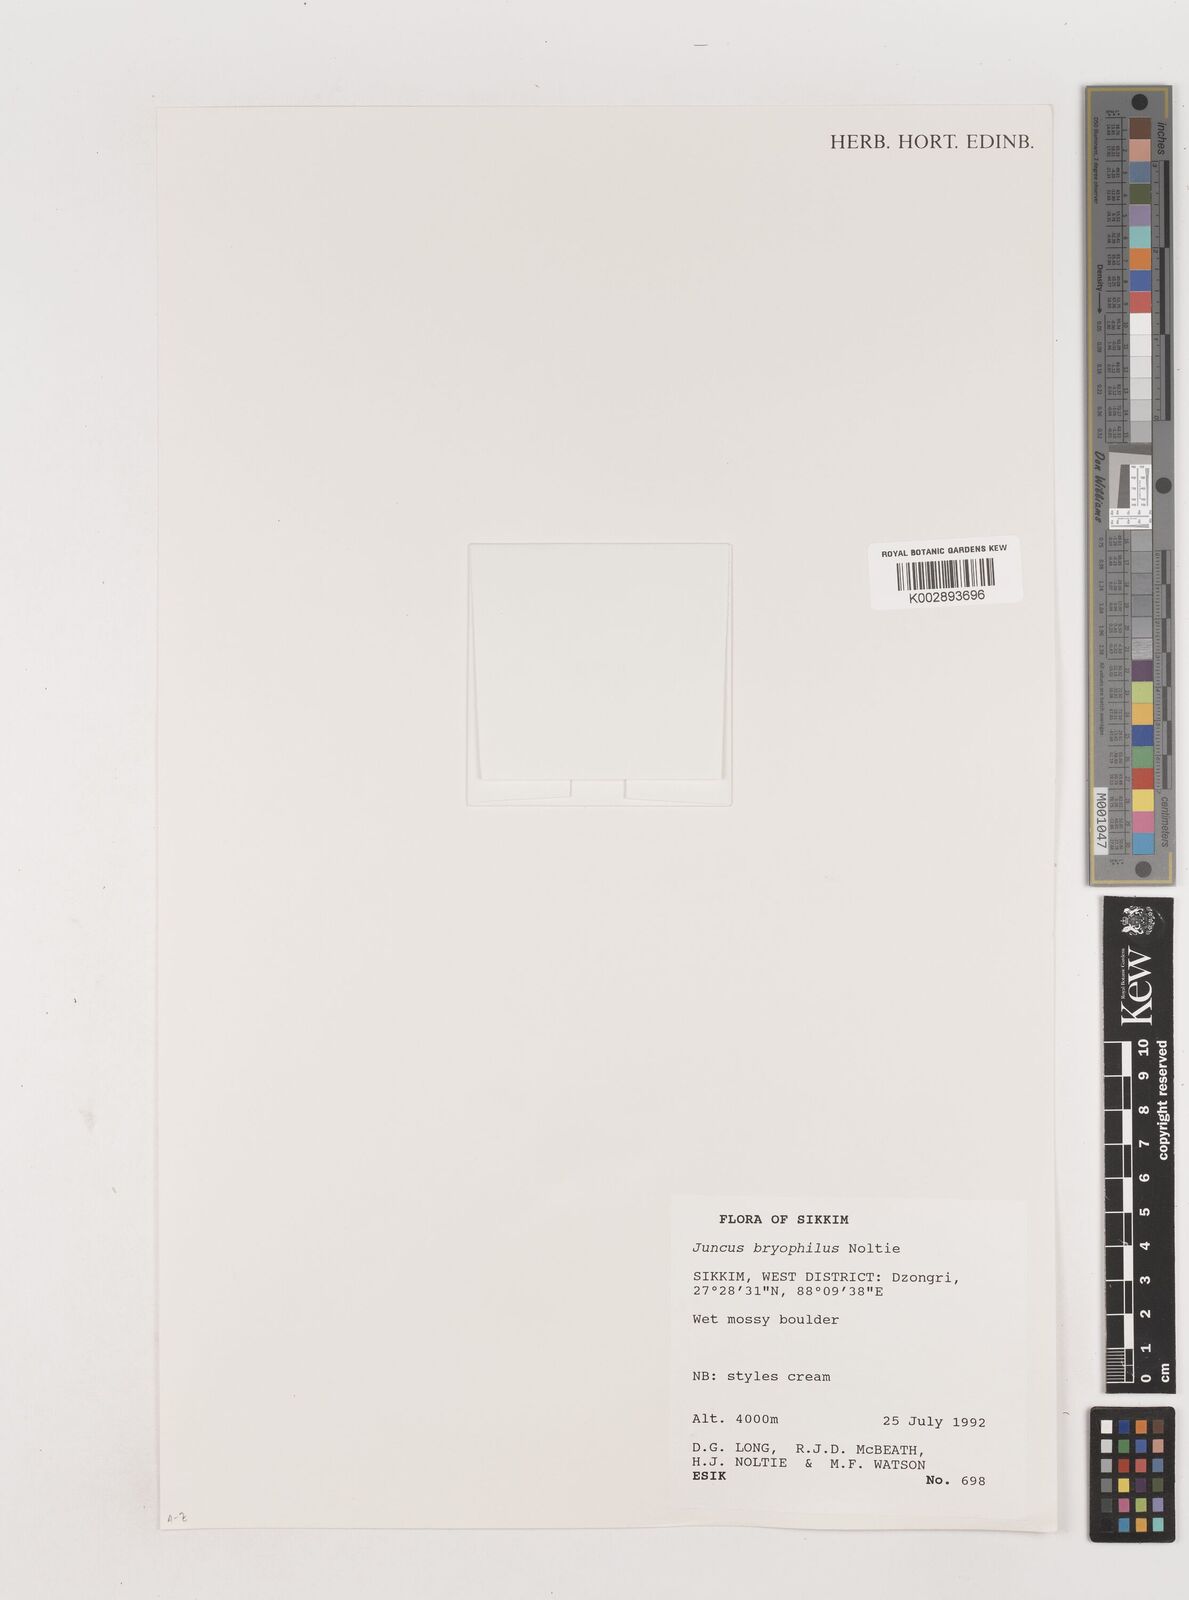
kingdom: Plantae
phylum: Tracheophyta
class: Liliopsida
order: Poales
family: Juncaceae
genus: Juncus
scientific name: Juncus
